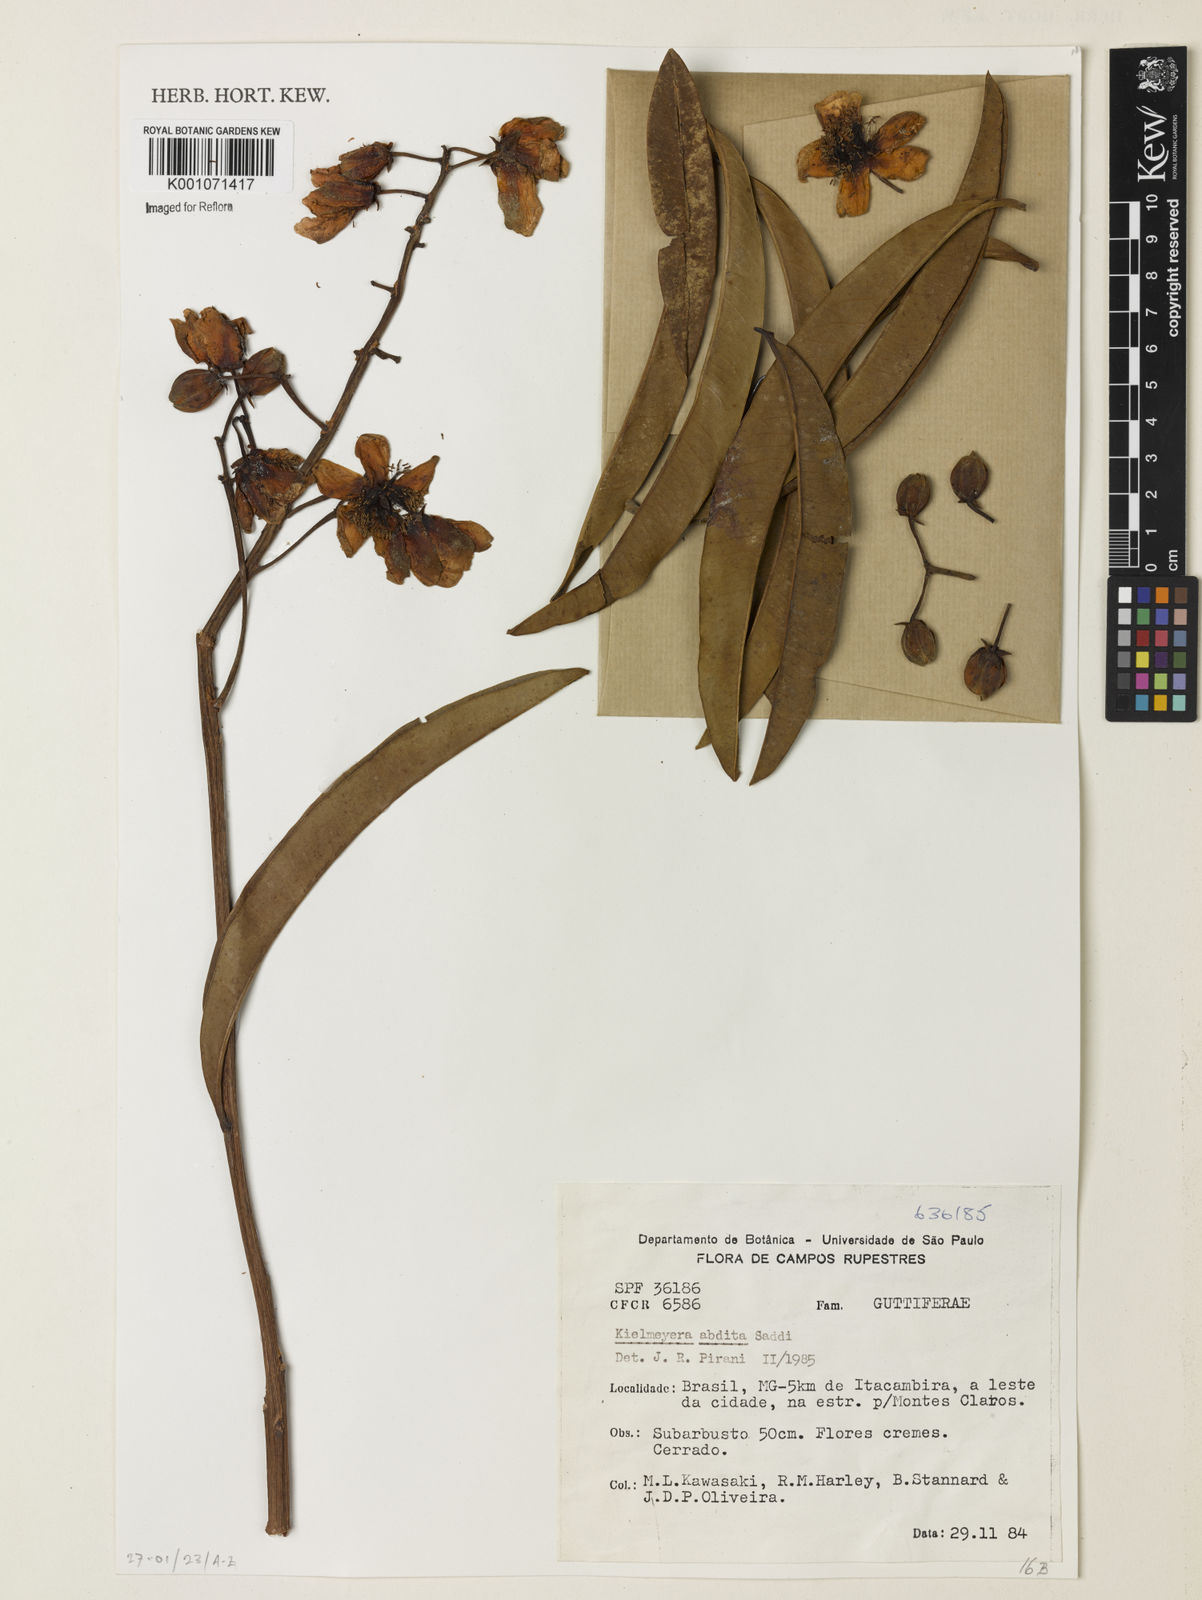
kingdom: Plantae
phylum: Tracheophyta
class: Magnoliopsida
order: Malpighiales
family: Calophyllaceae
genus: Kielmeyera
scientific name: Kielmeyera abdita
